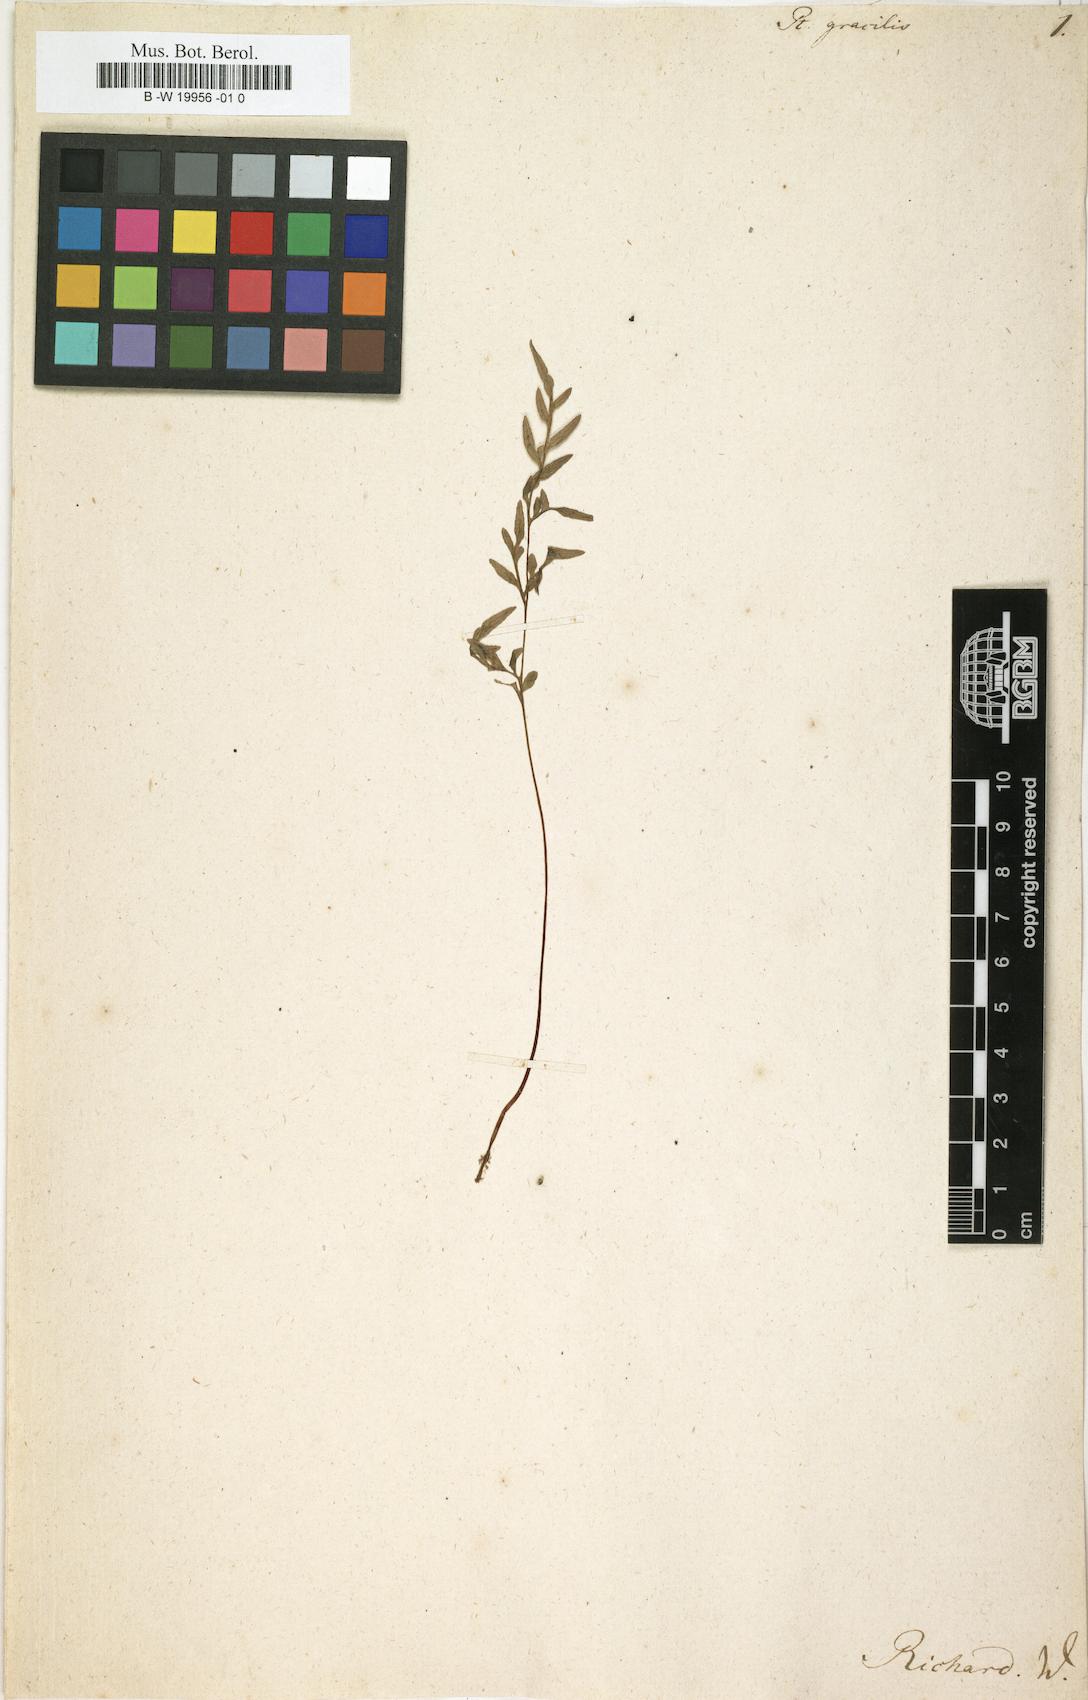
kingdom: Plantae
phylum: Tracheophyta
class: Polypodiopsida
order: Polypodiales
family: Pteridaceae
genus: Pteris
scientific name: Pteris gracilis
